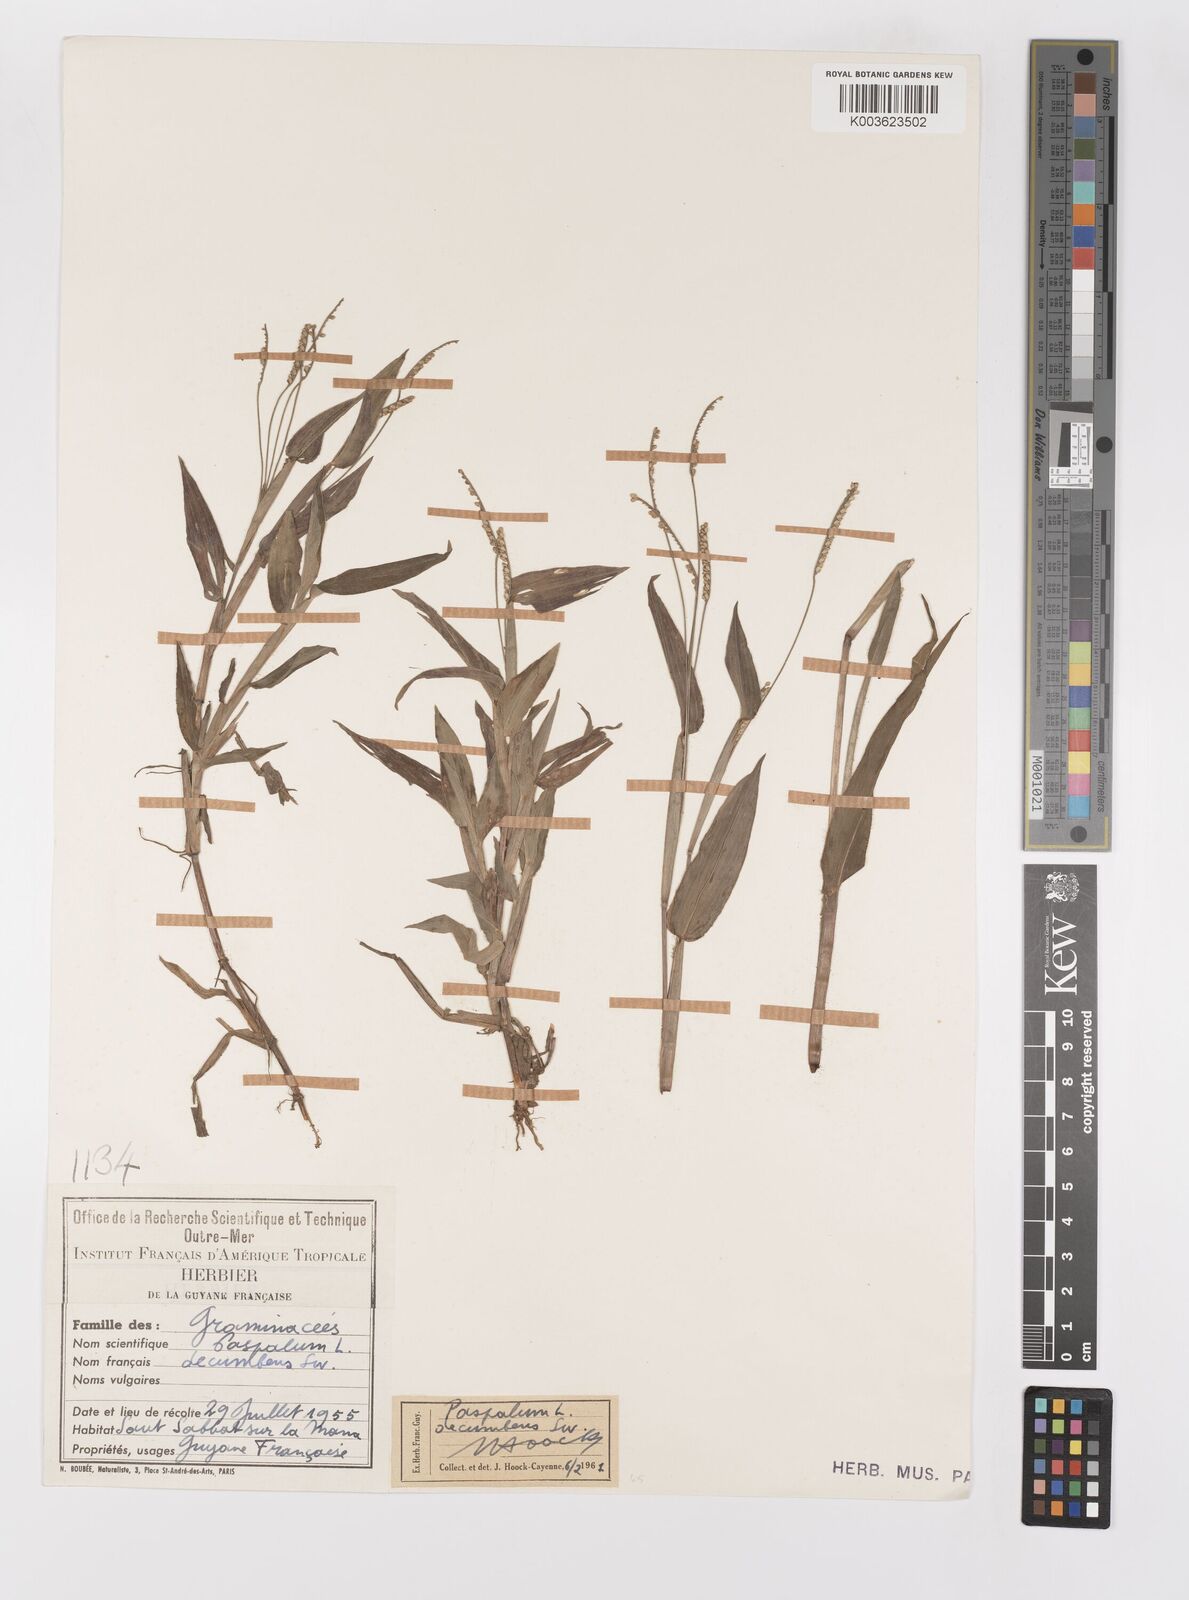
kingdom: Plantae
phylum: Tracheophyta
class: Liliopsida
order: Poales
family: Poaceae
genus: Paspalum
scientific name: Paspalum decumbens
